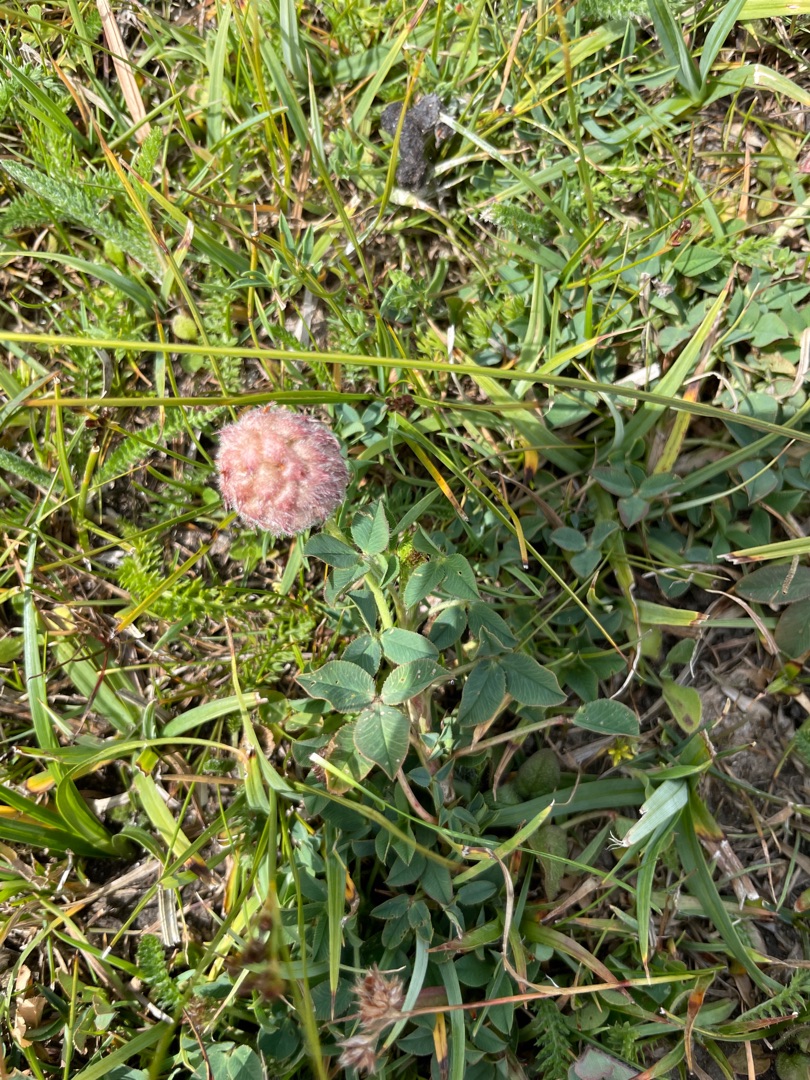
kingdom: Plantae
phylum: Tracheophyta
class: Magnoliopsida
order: Fabales
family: Fabaceae
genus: Trifolium
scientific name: Trifolium fragiferum
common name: Jordbær-kløver
